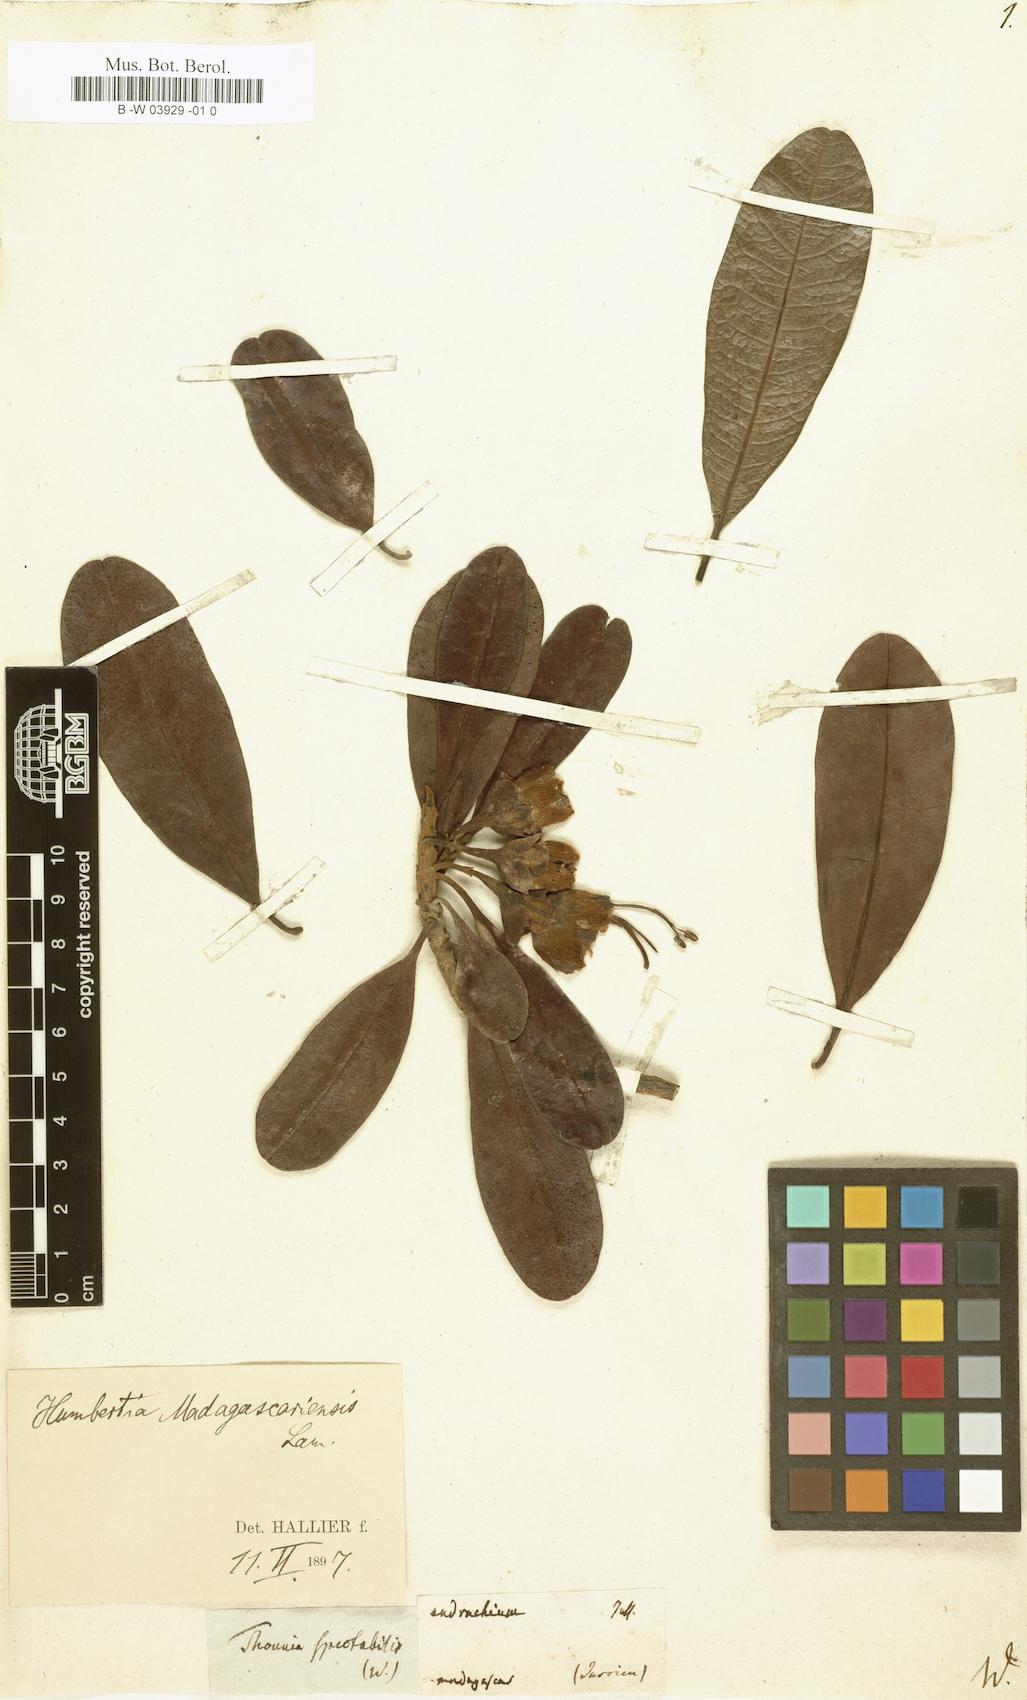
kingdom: Plantae
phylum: Tracheophyta
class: Magnoliopsida
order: Solanales
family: Convolvulaceae
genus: Humbertia
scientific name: Humbertia madagascariensis
